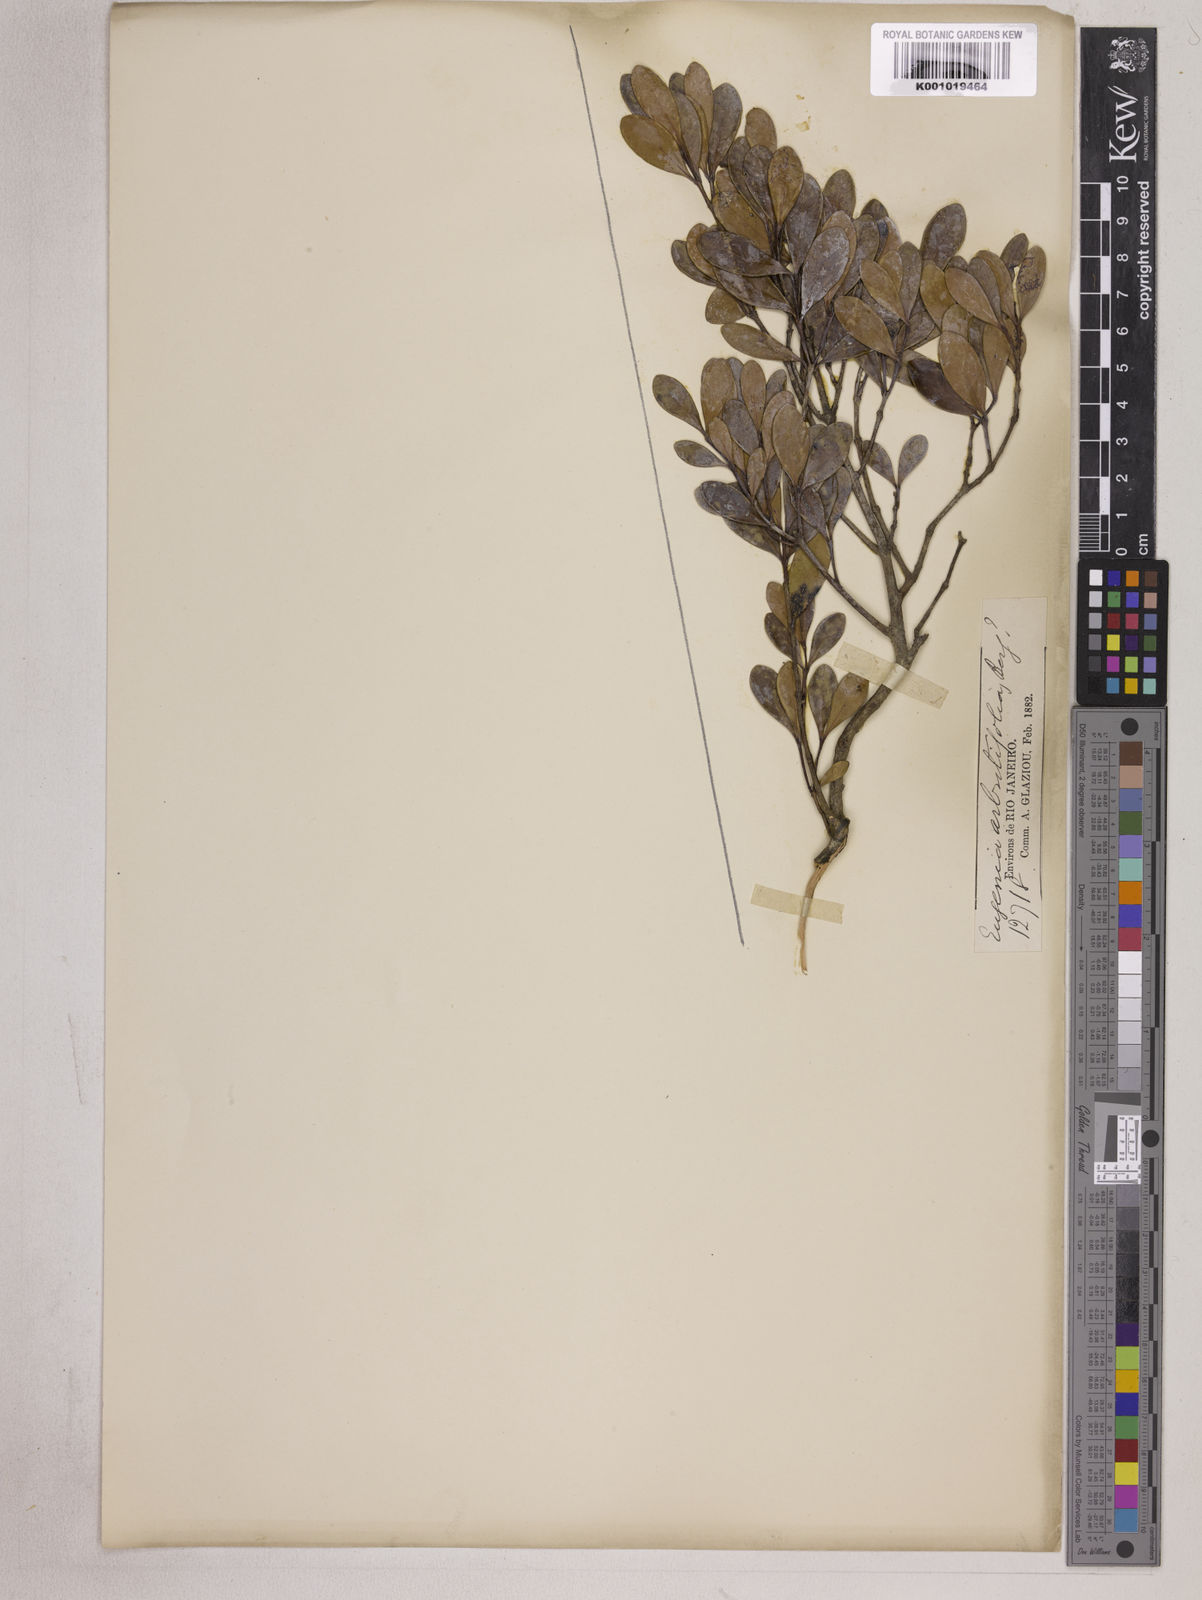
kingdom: Plantae
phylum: Tracheophyta
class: Magnoliopsida
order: Myrtales
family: Myrtaceae
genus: Eugenia
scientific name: Eugenia punicifolia
